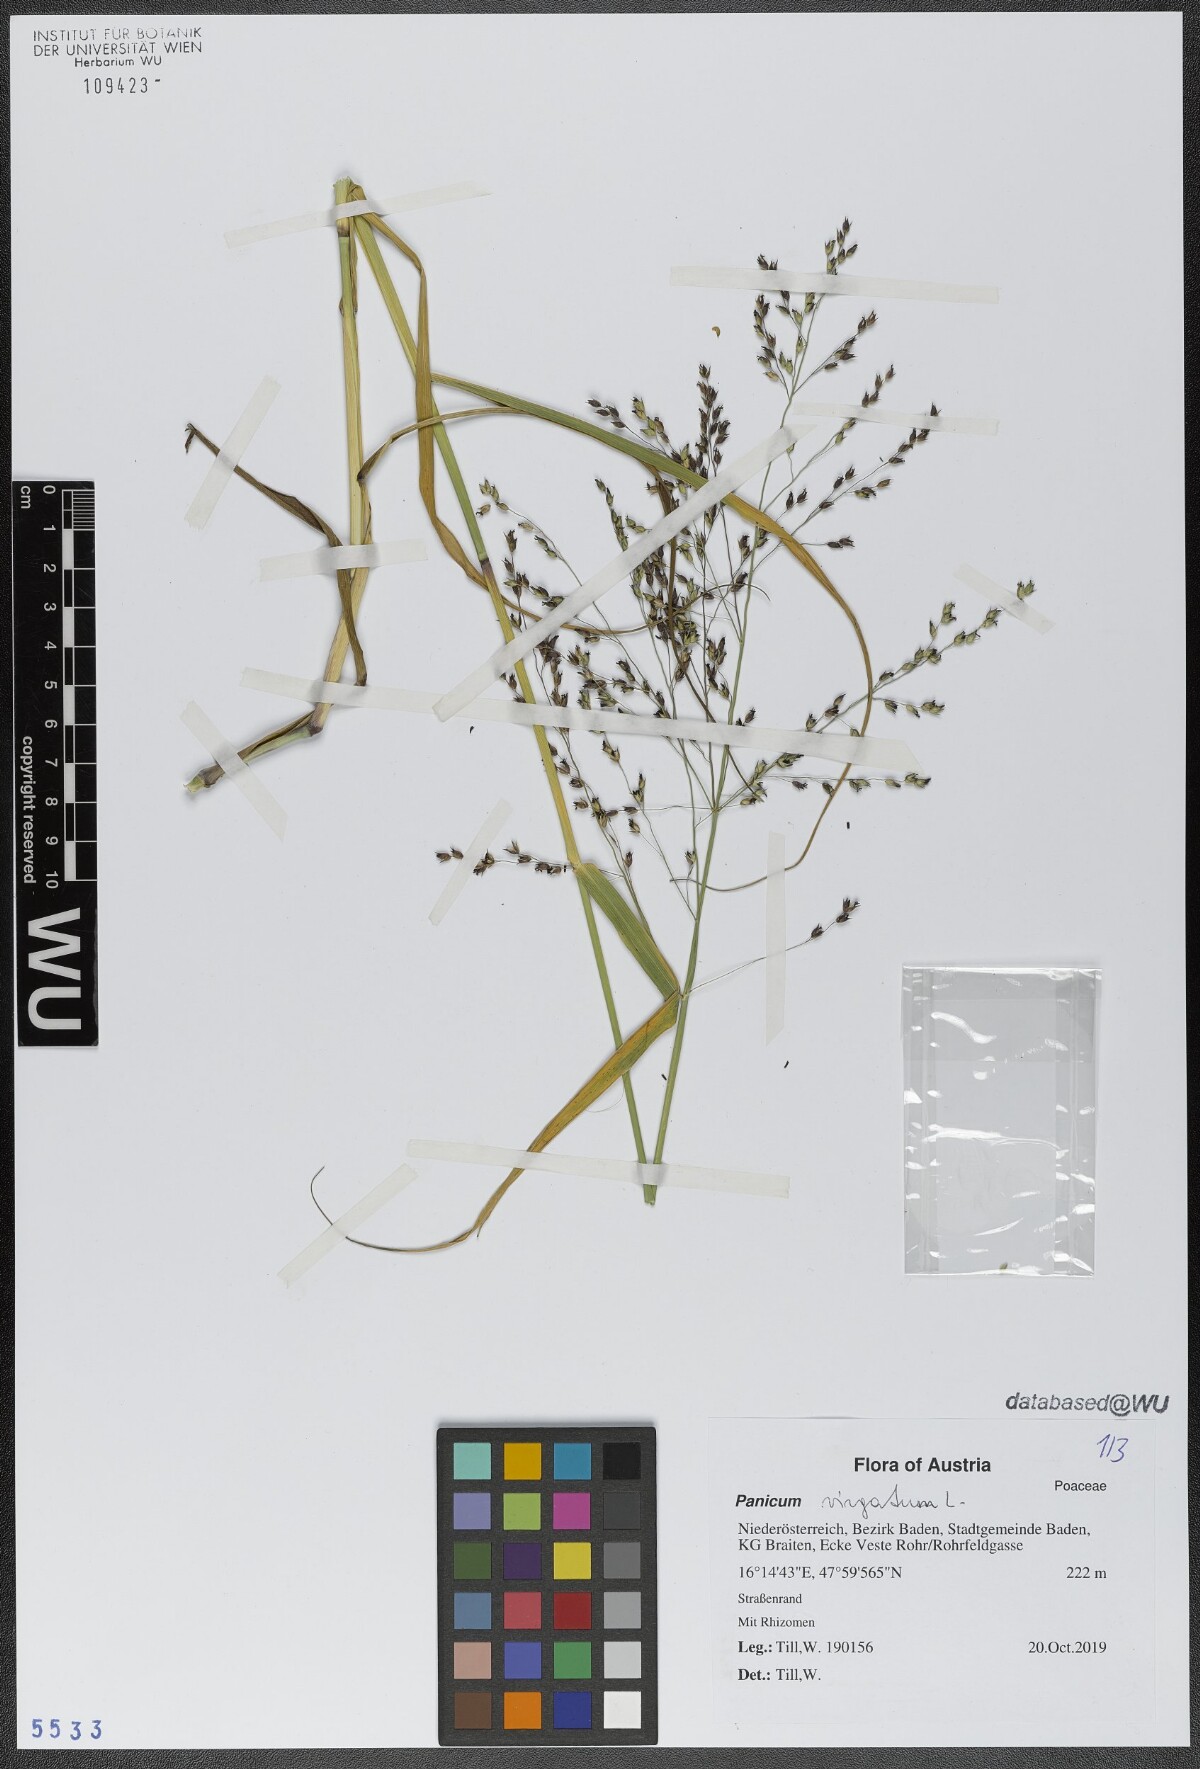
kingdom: Plantae
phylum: Tracheophyta
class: Liliopsida
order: Poales
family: Poaceae
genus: Panicum
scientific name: Panicum virgatum
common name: Switchgrass
